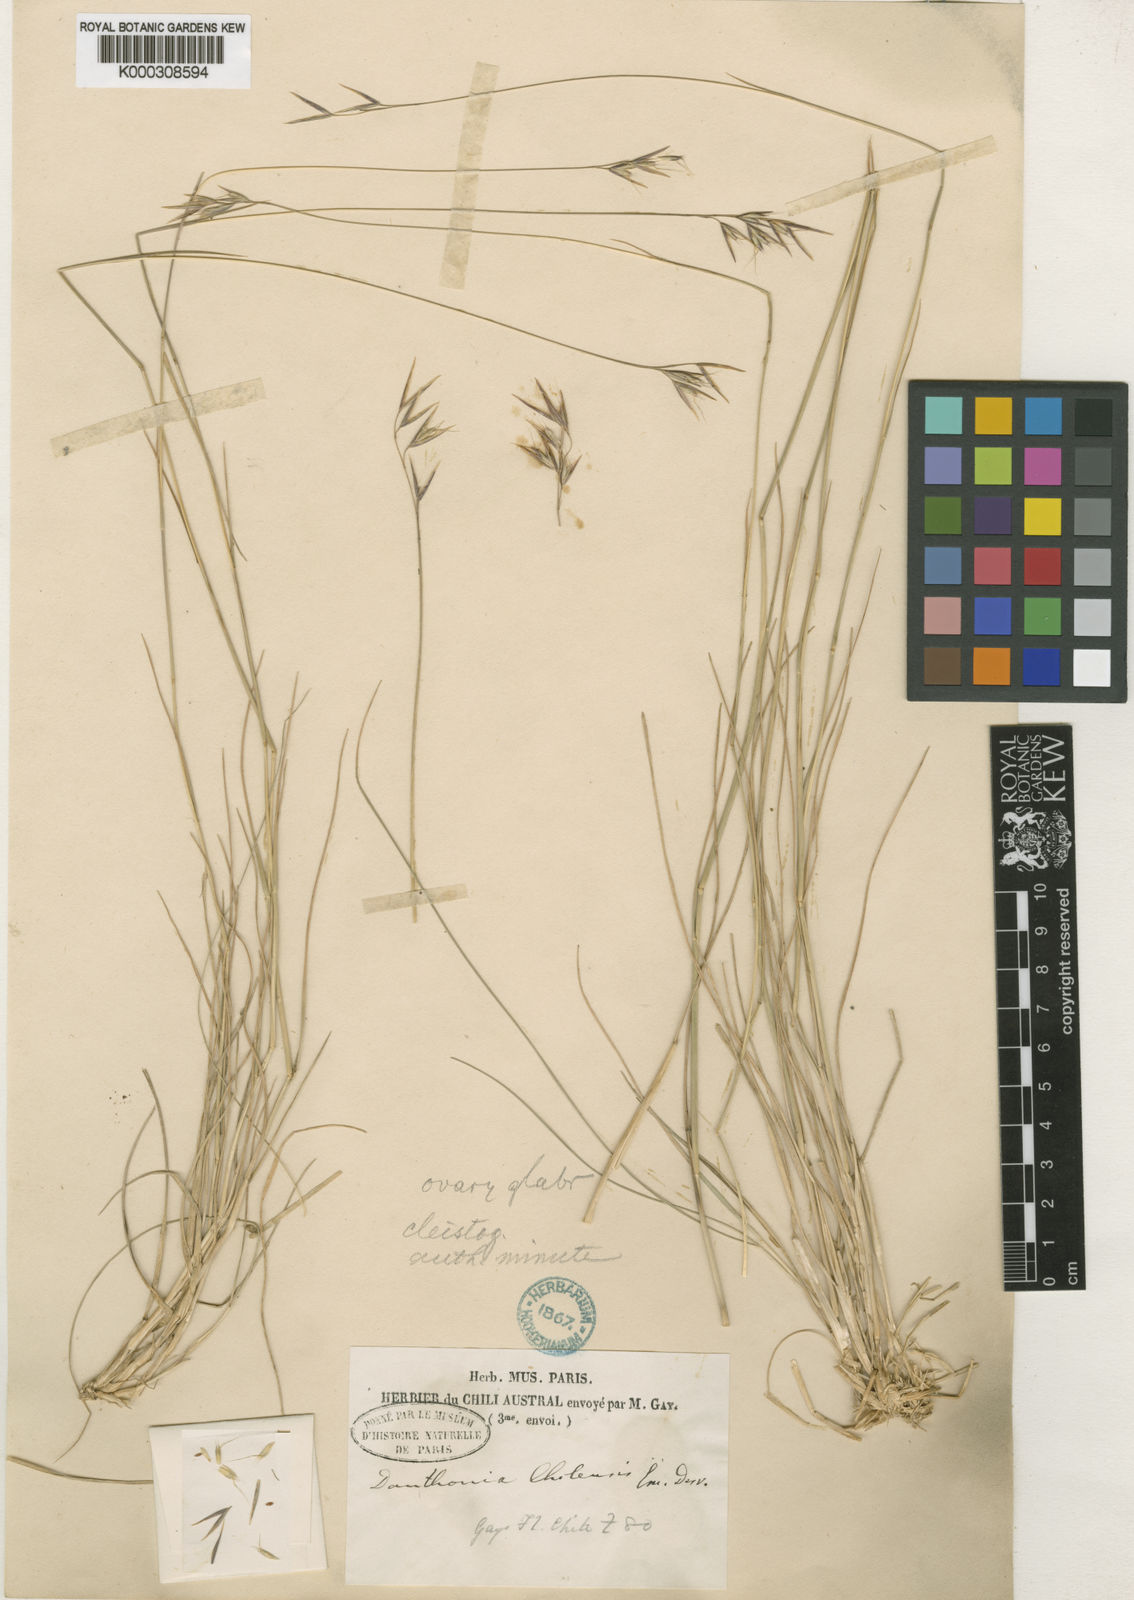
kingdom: Plantae
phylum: Tracheophyta
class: Liliopsida
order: Poales
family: Poaceae
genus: Danthonia
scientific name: Danthonia chilensis
